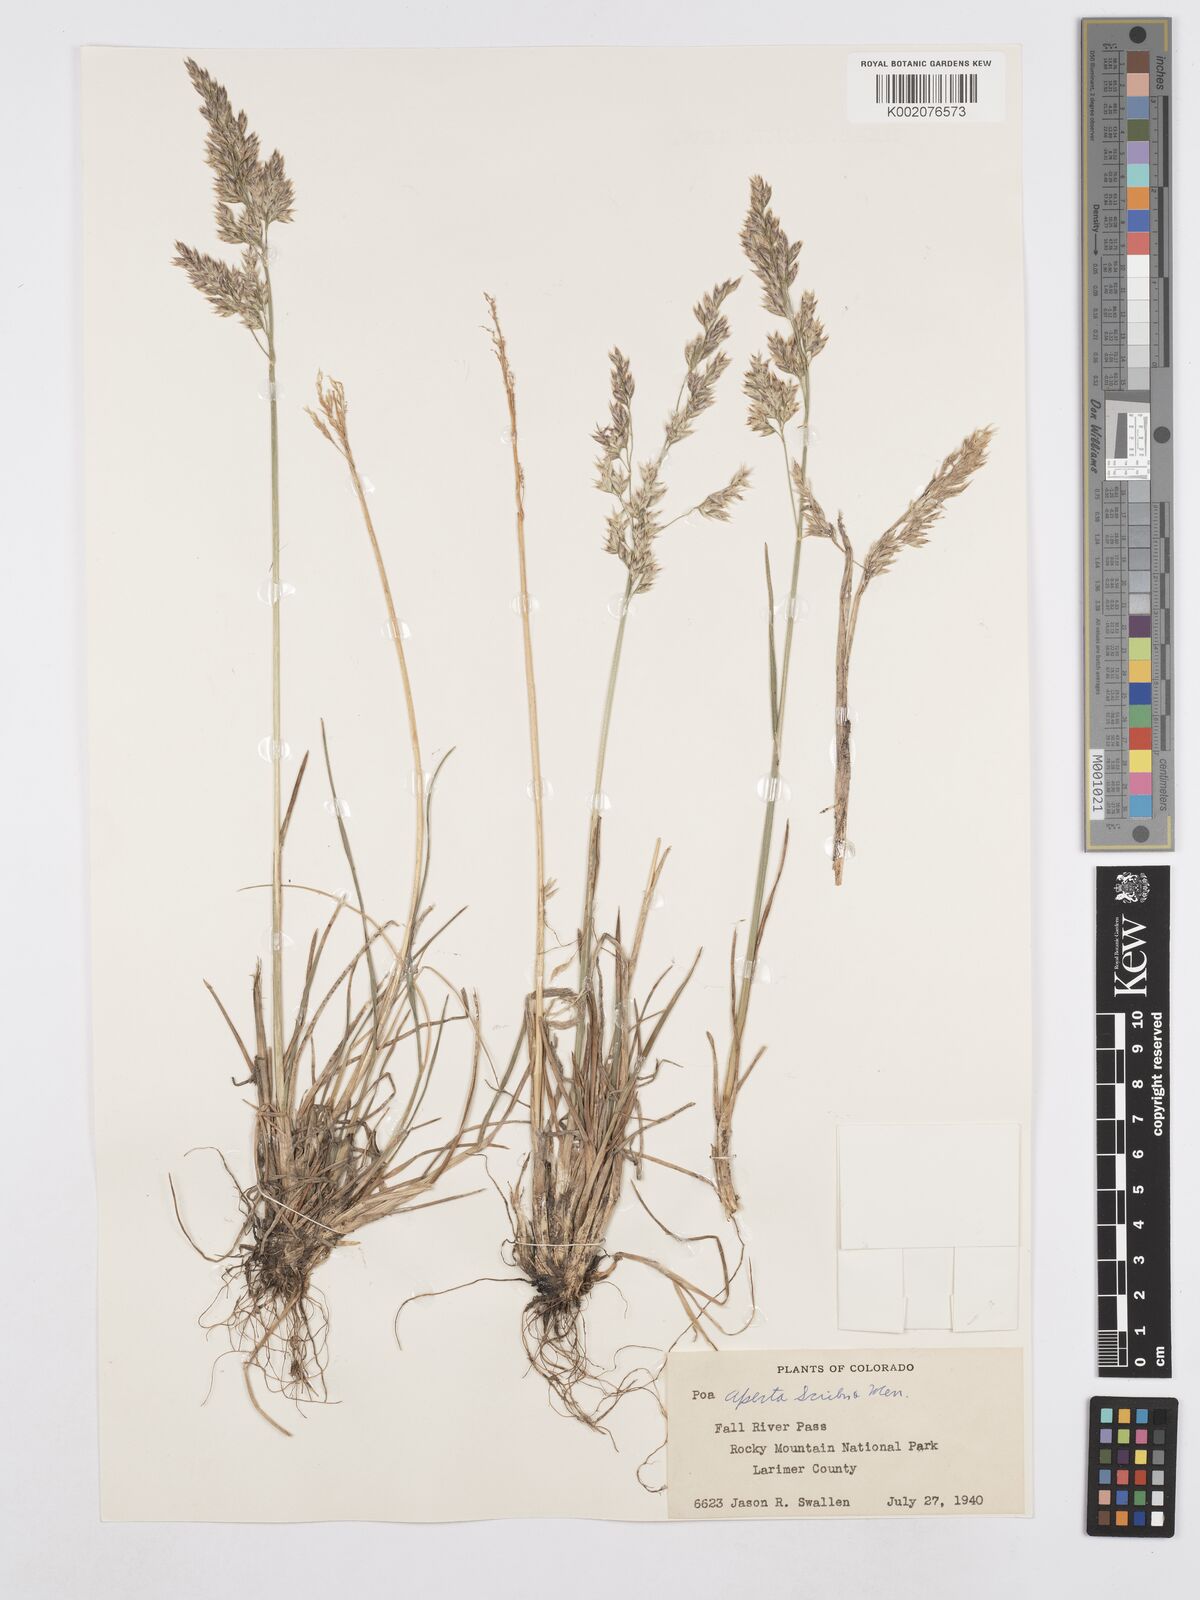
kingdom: Plantae
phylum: Tracheophyta
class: Liliopsida
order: Poales
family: Poaceae
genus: Poa
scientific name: Poa arctica
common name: Arctic bluegrass
